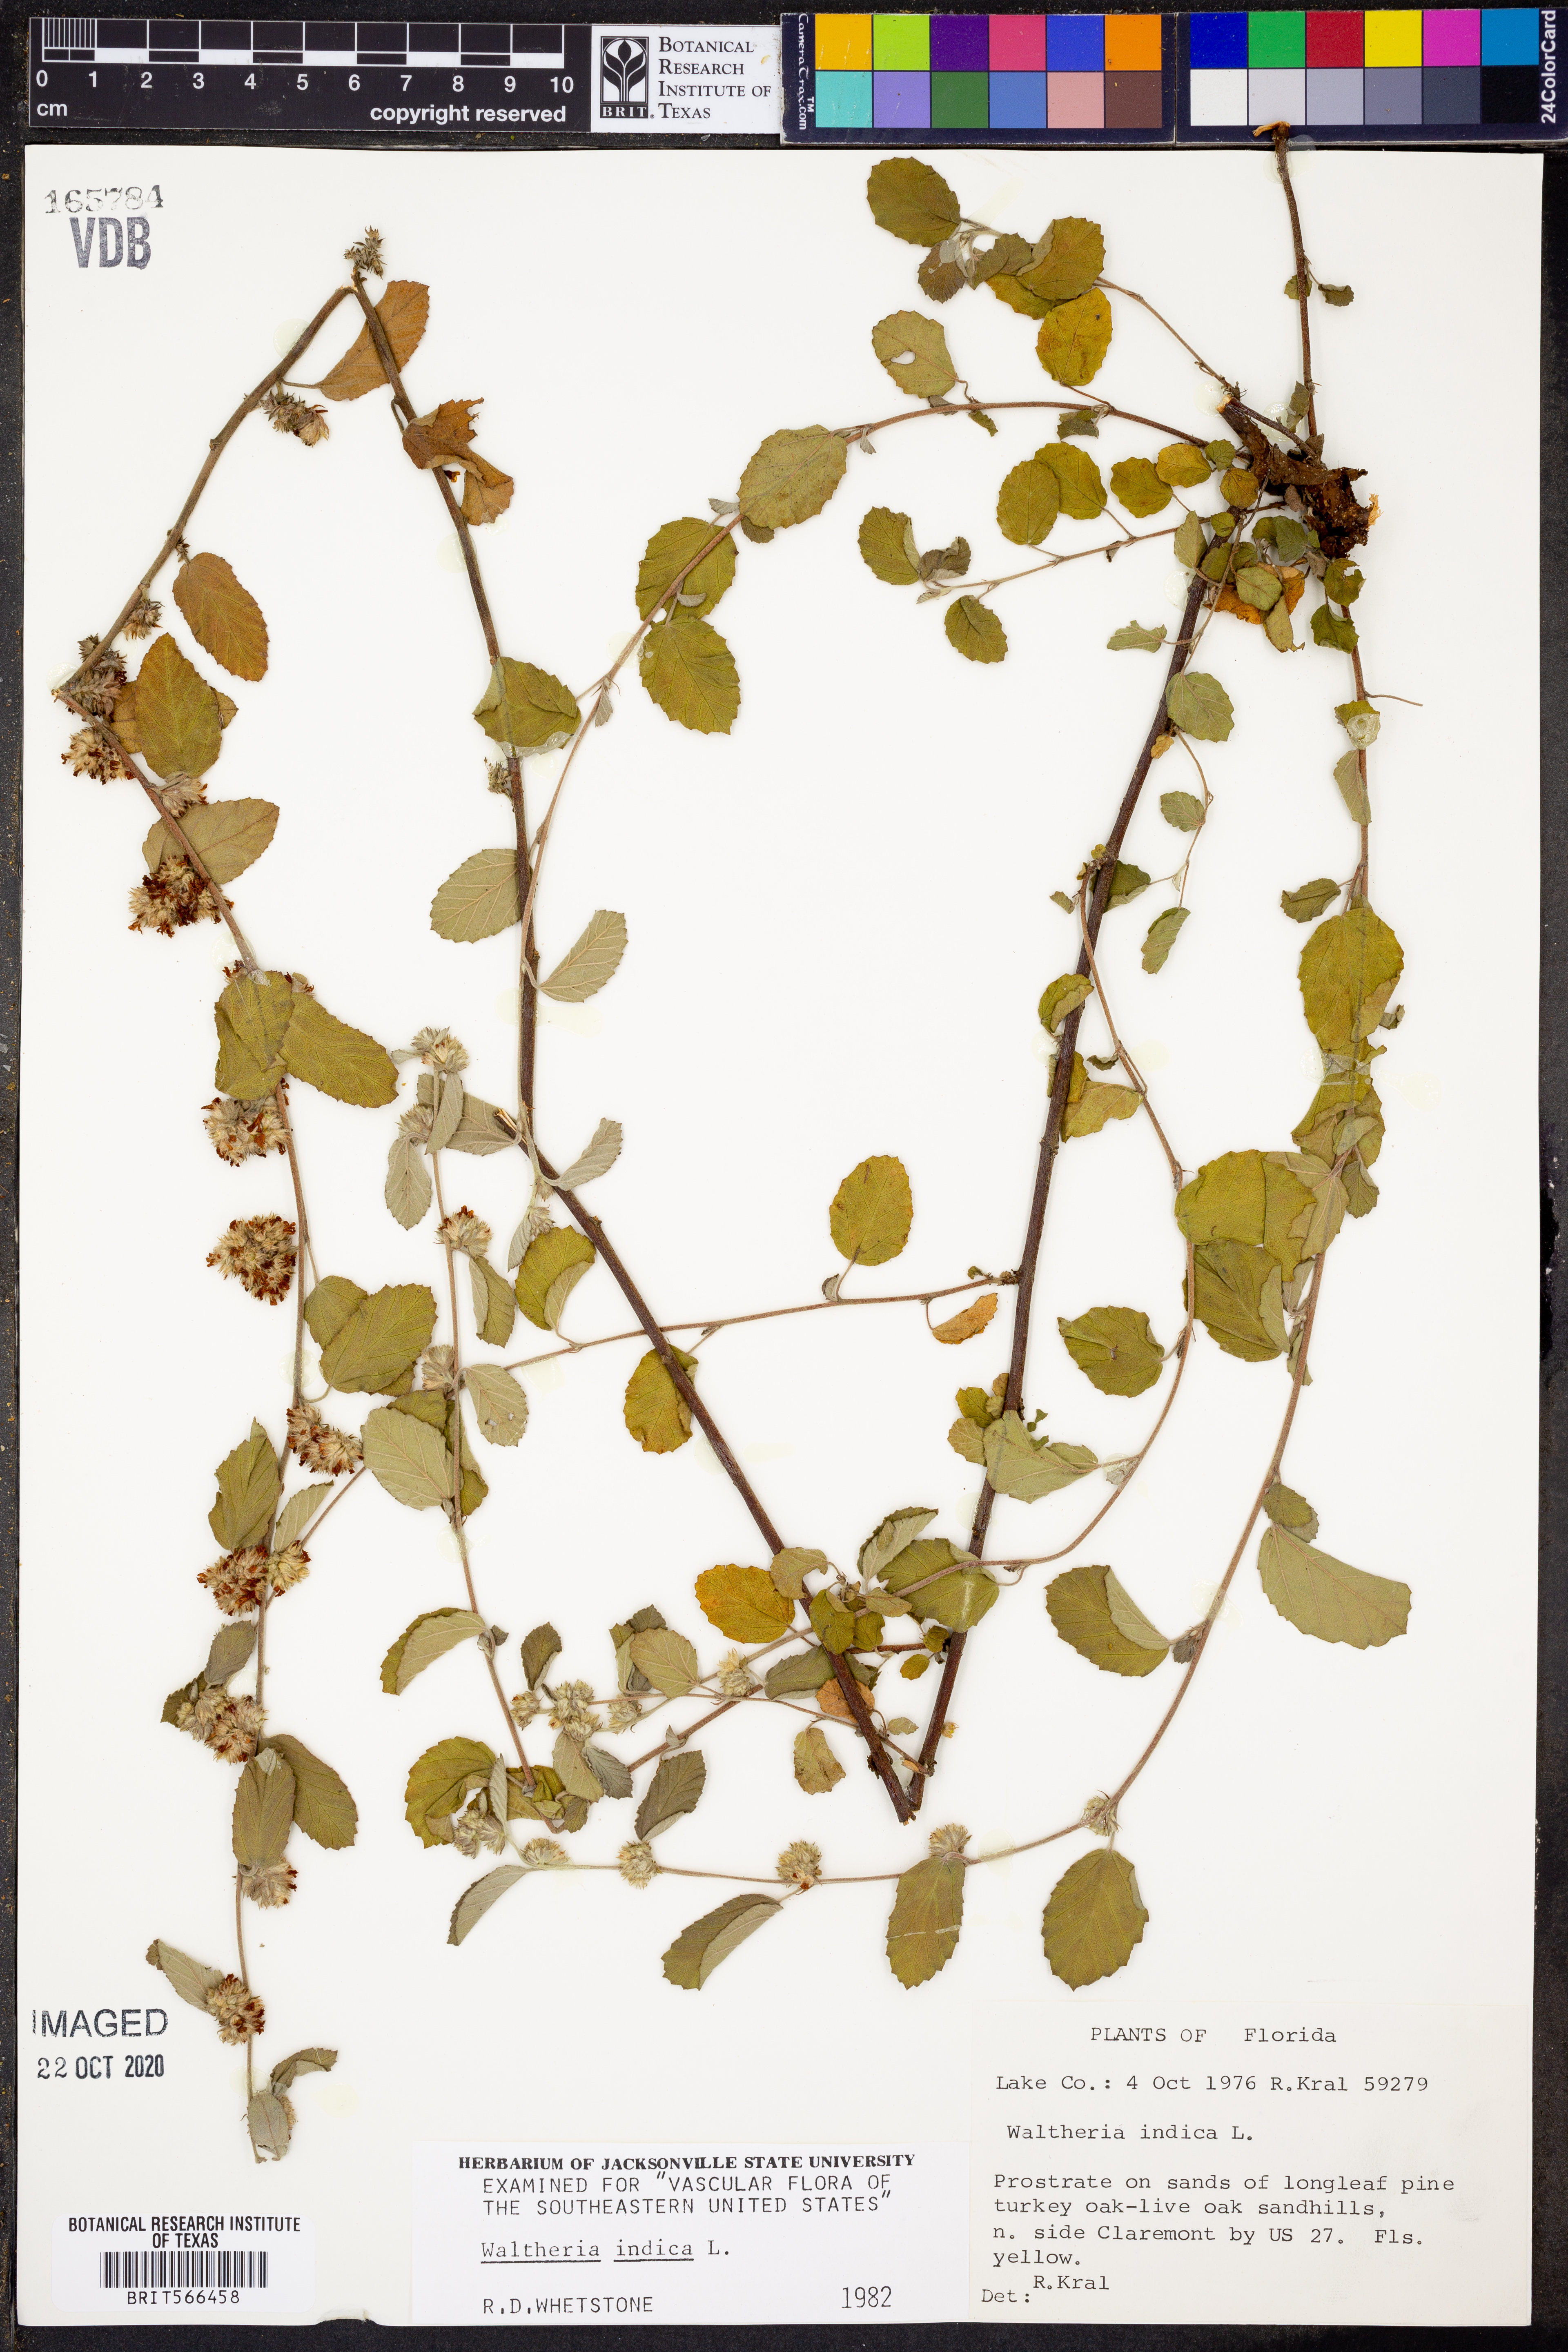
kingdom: Plantae
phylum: Tracheophyta
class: Magnoliopsida
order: Malvales
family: Malvaceae
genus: Waltheria
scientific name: Waltheria indica
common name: Leather-coat
